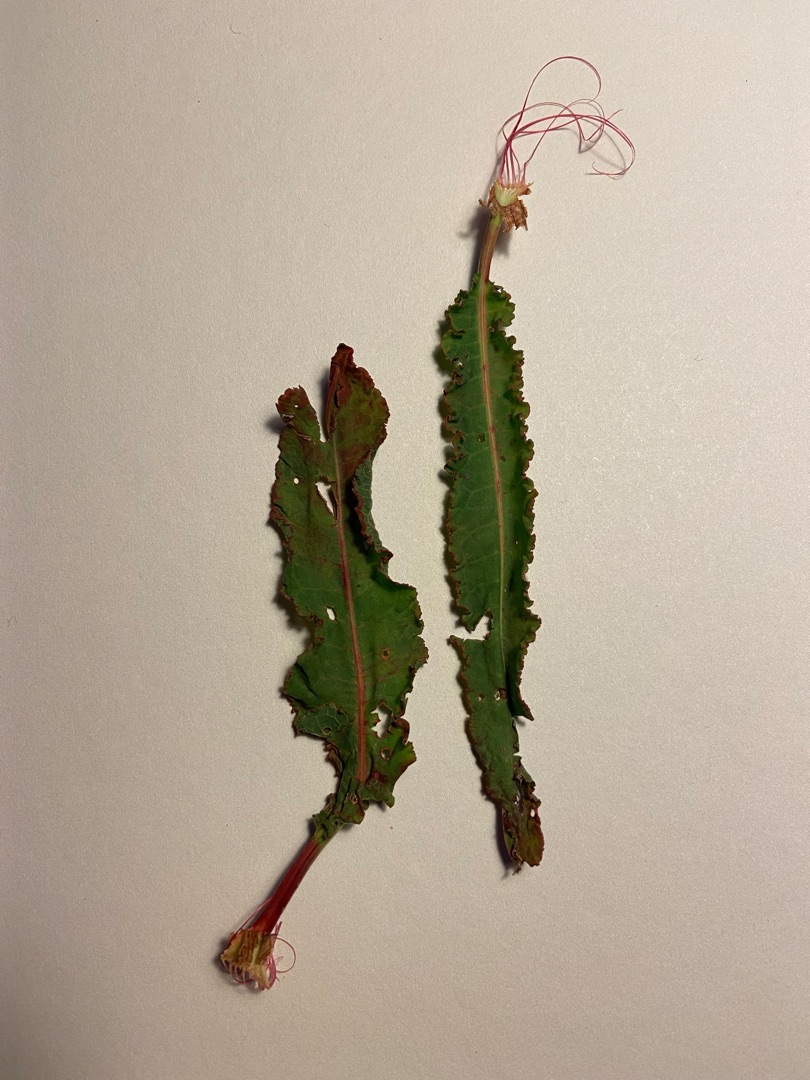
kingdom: Plantae
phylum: Tracheophyta
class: Magnoliopsida
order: Caryophyllales
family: Polygonaceae
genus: Rumex
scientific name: Rumex crispus
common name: Kruset skræppe
